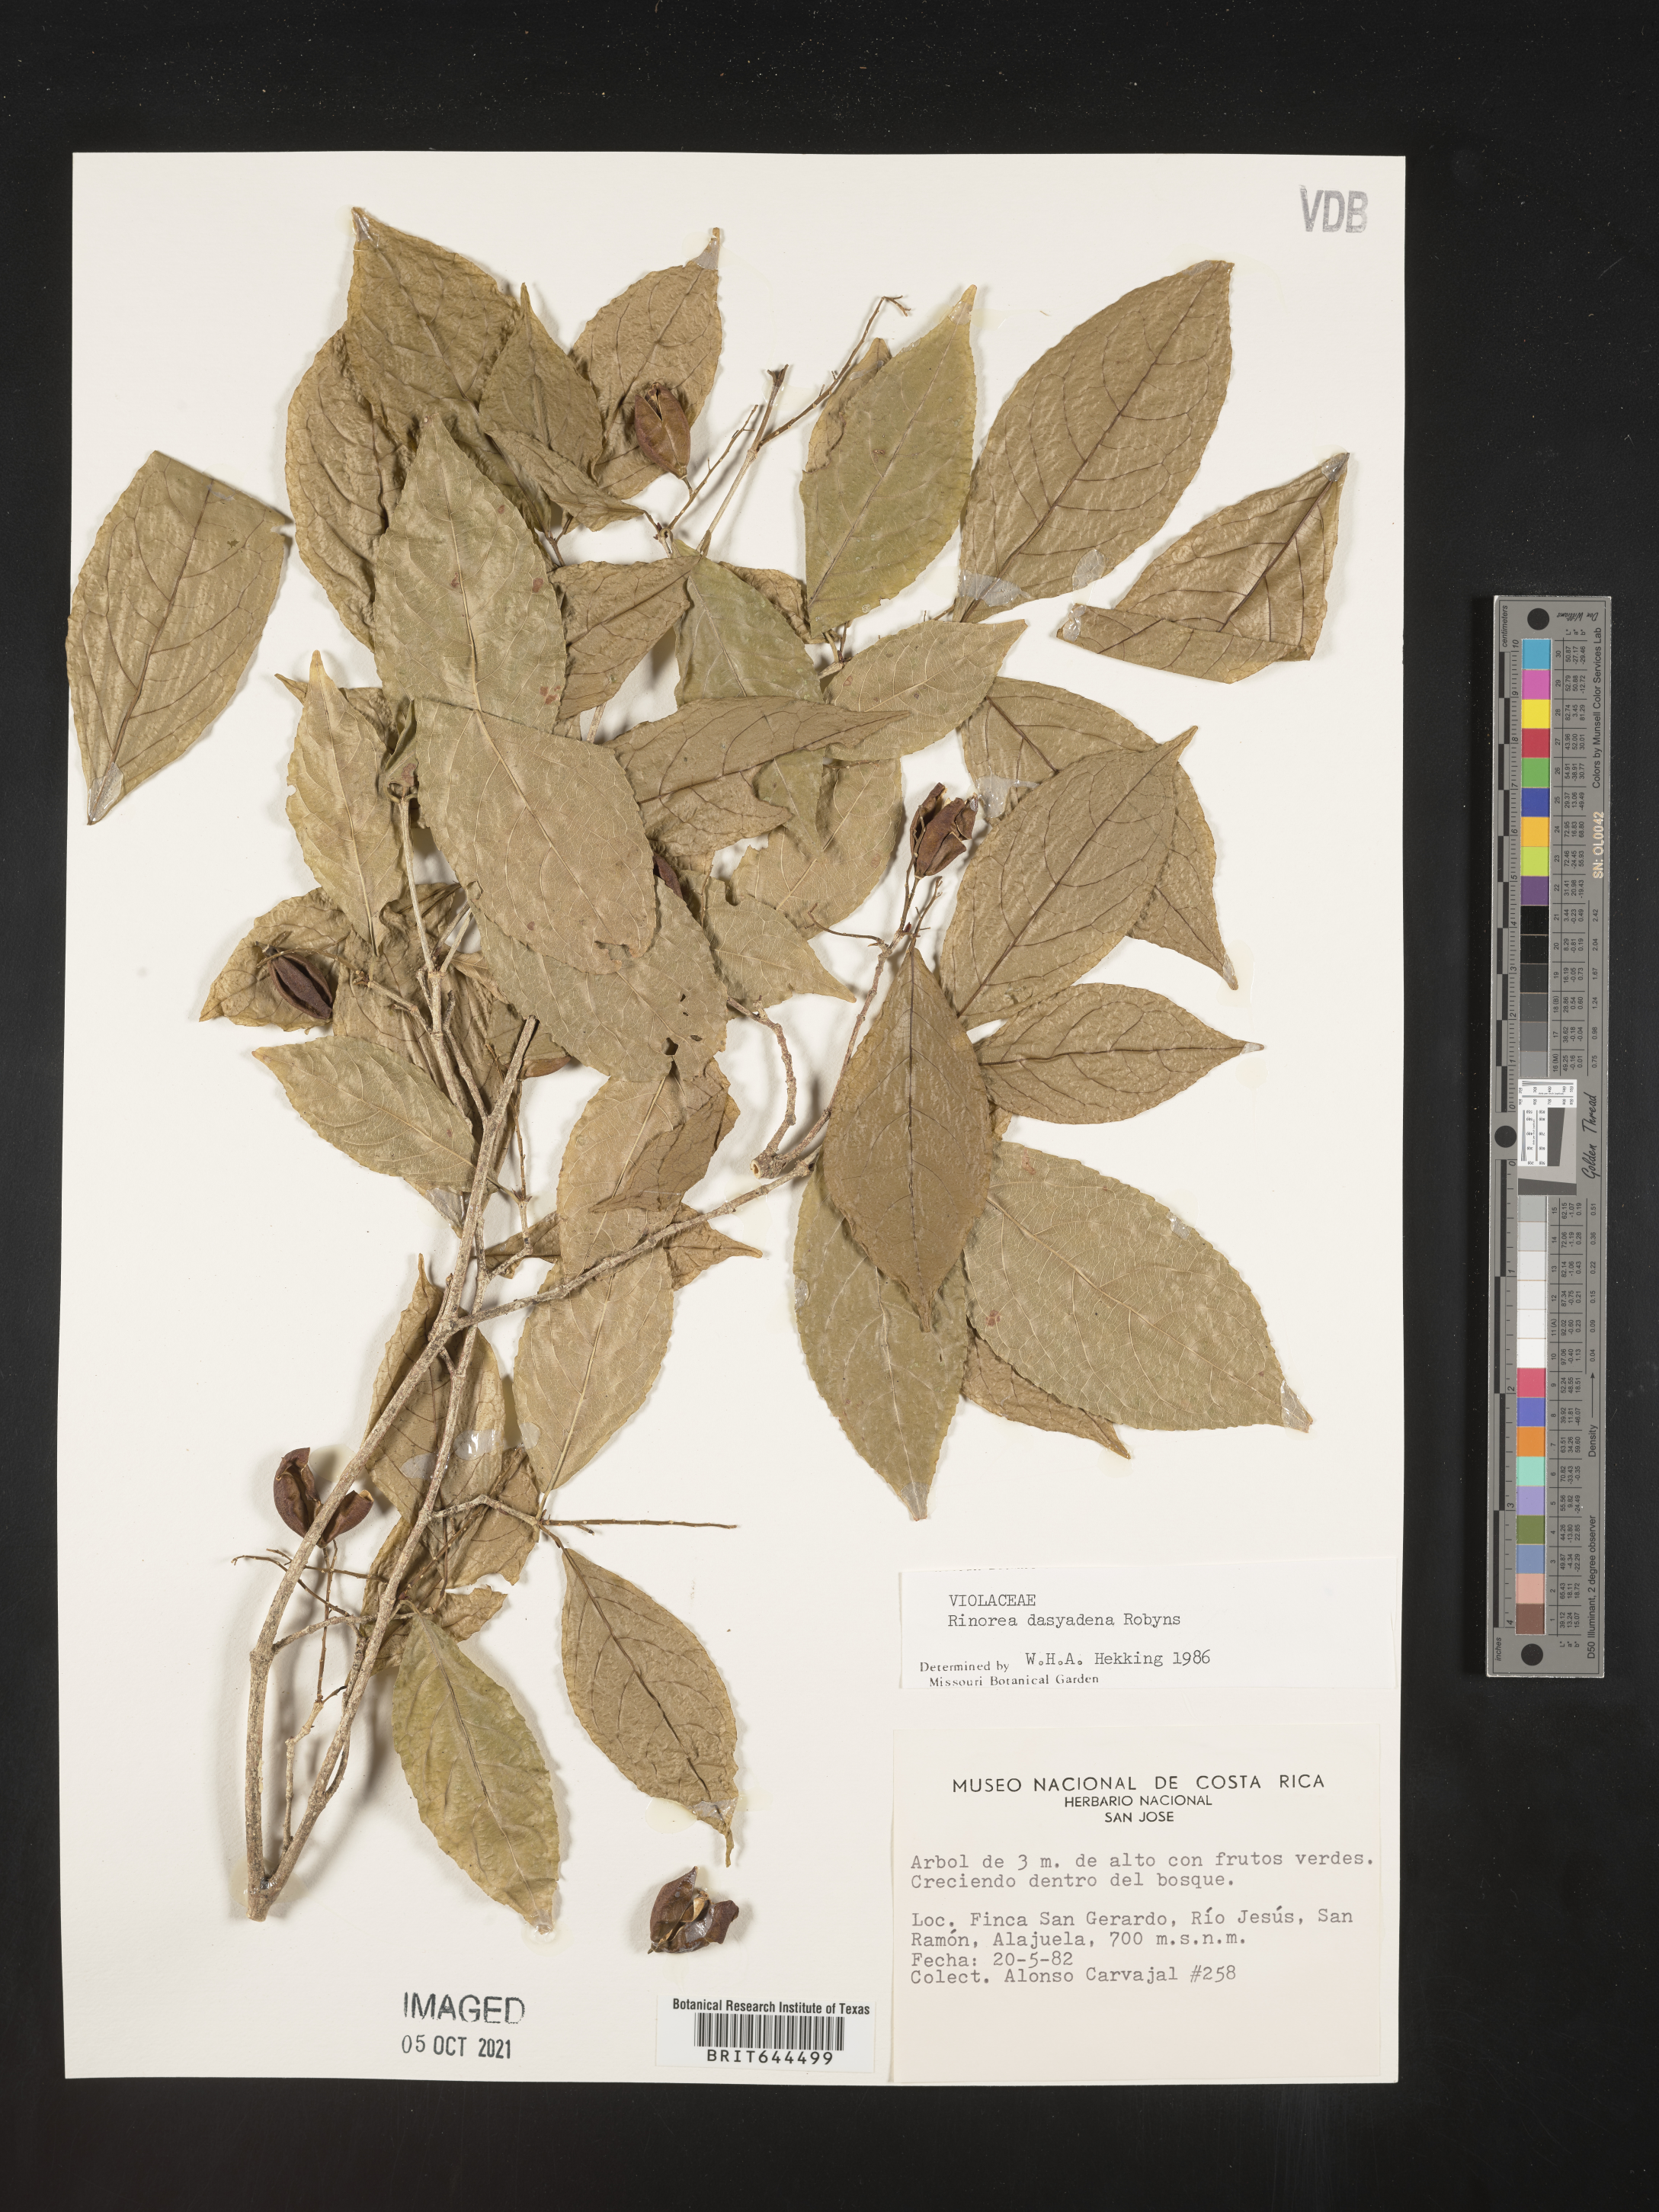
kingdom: Plantae
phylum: Tracheophyta
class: Magnoliopsida
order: Malpighiales
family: Violaceae
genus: Rinorea
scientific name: Rinorea
